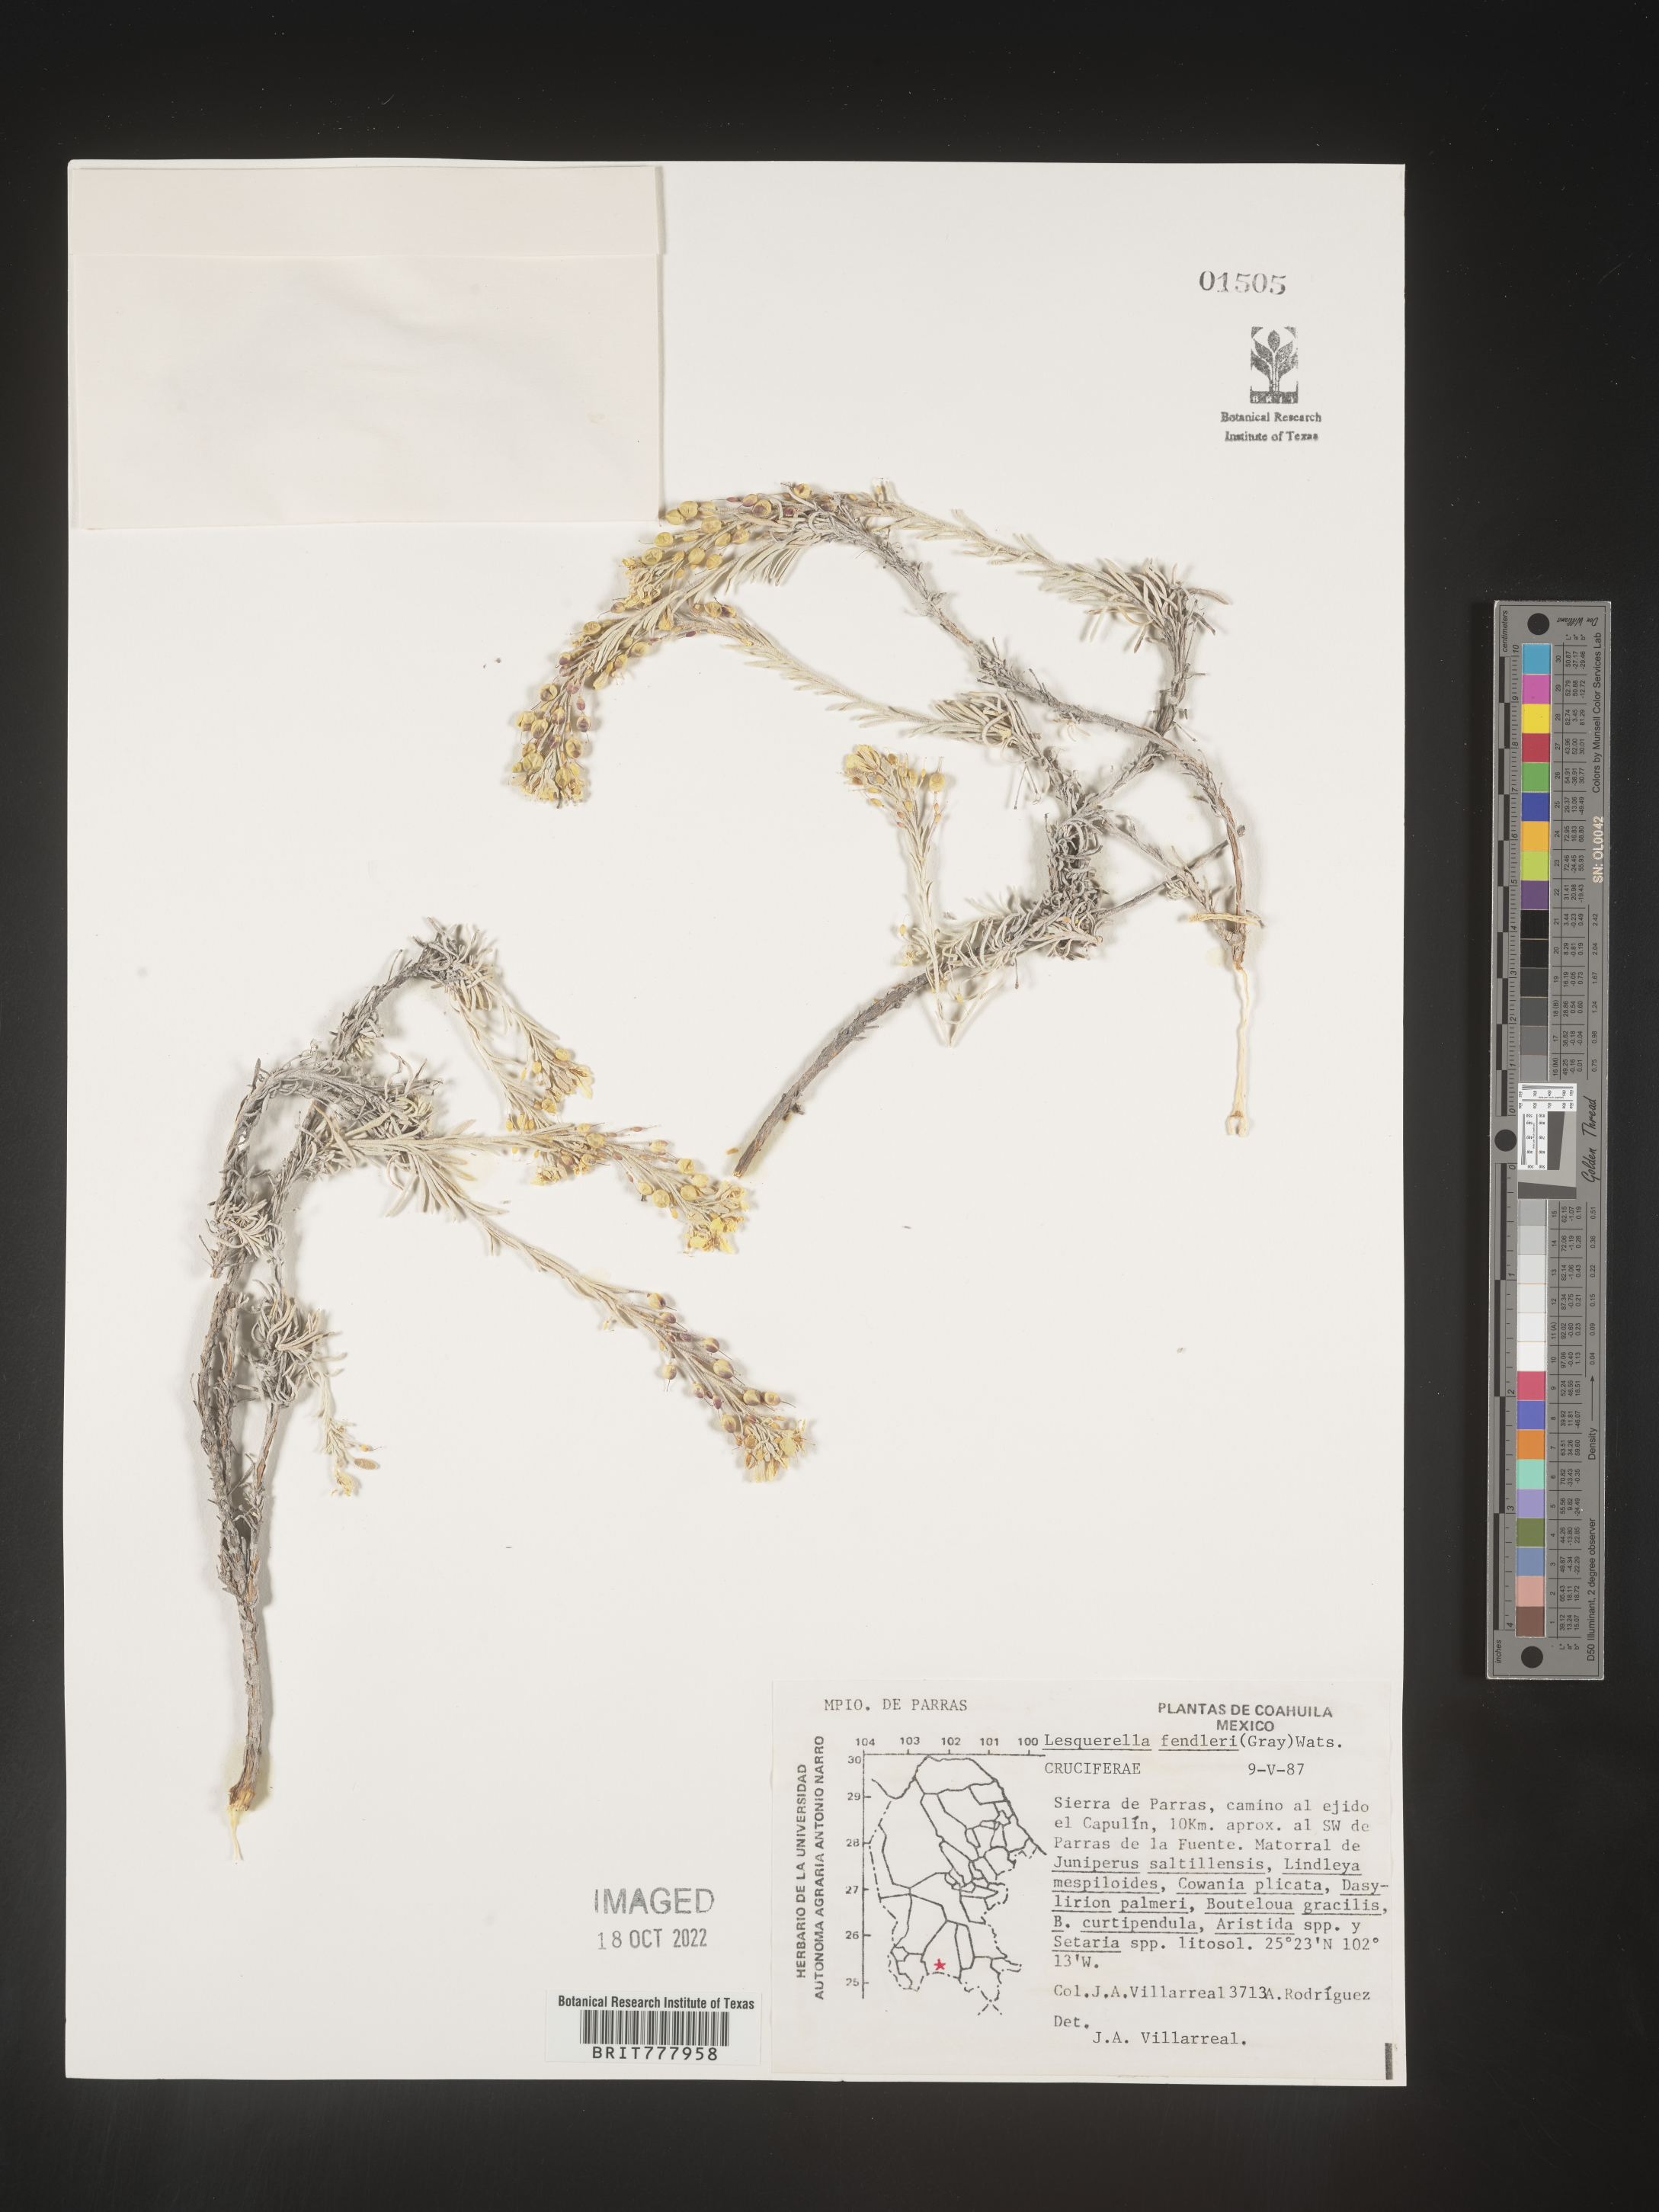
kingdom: Chromista
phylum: Cercozoa
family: Psammonobiotidae
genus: Lesquerella
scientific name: Lesquerella
